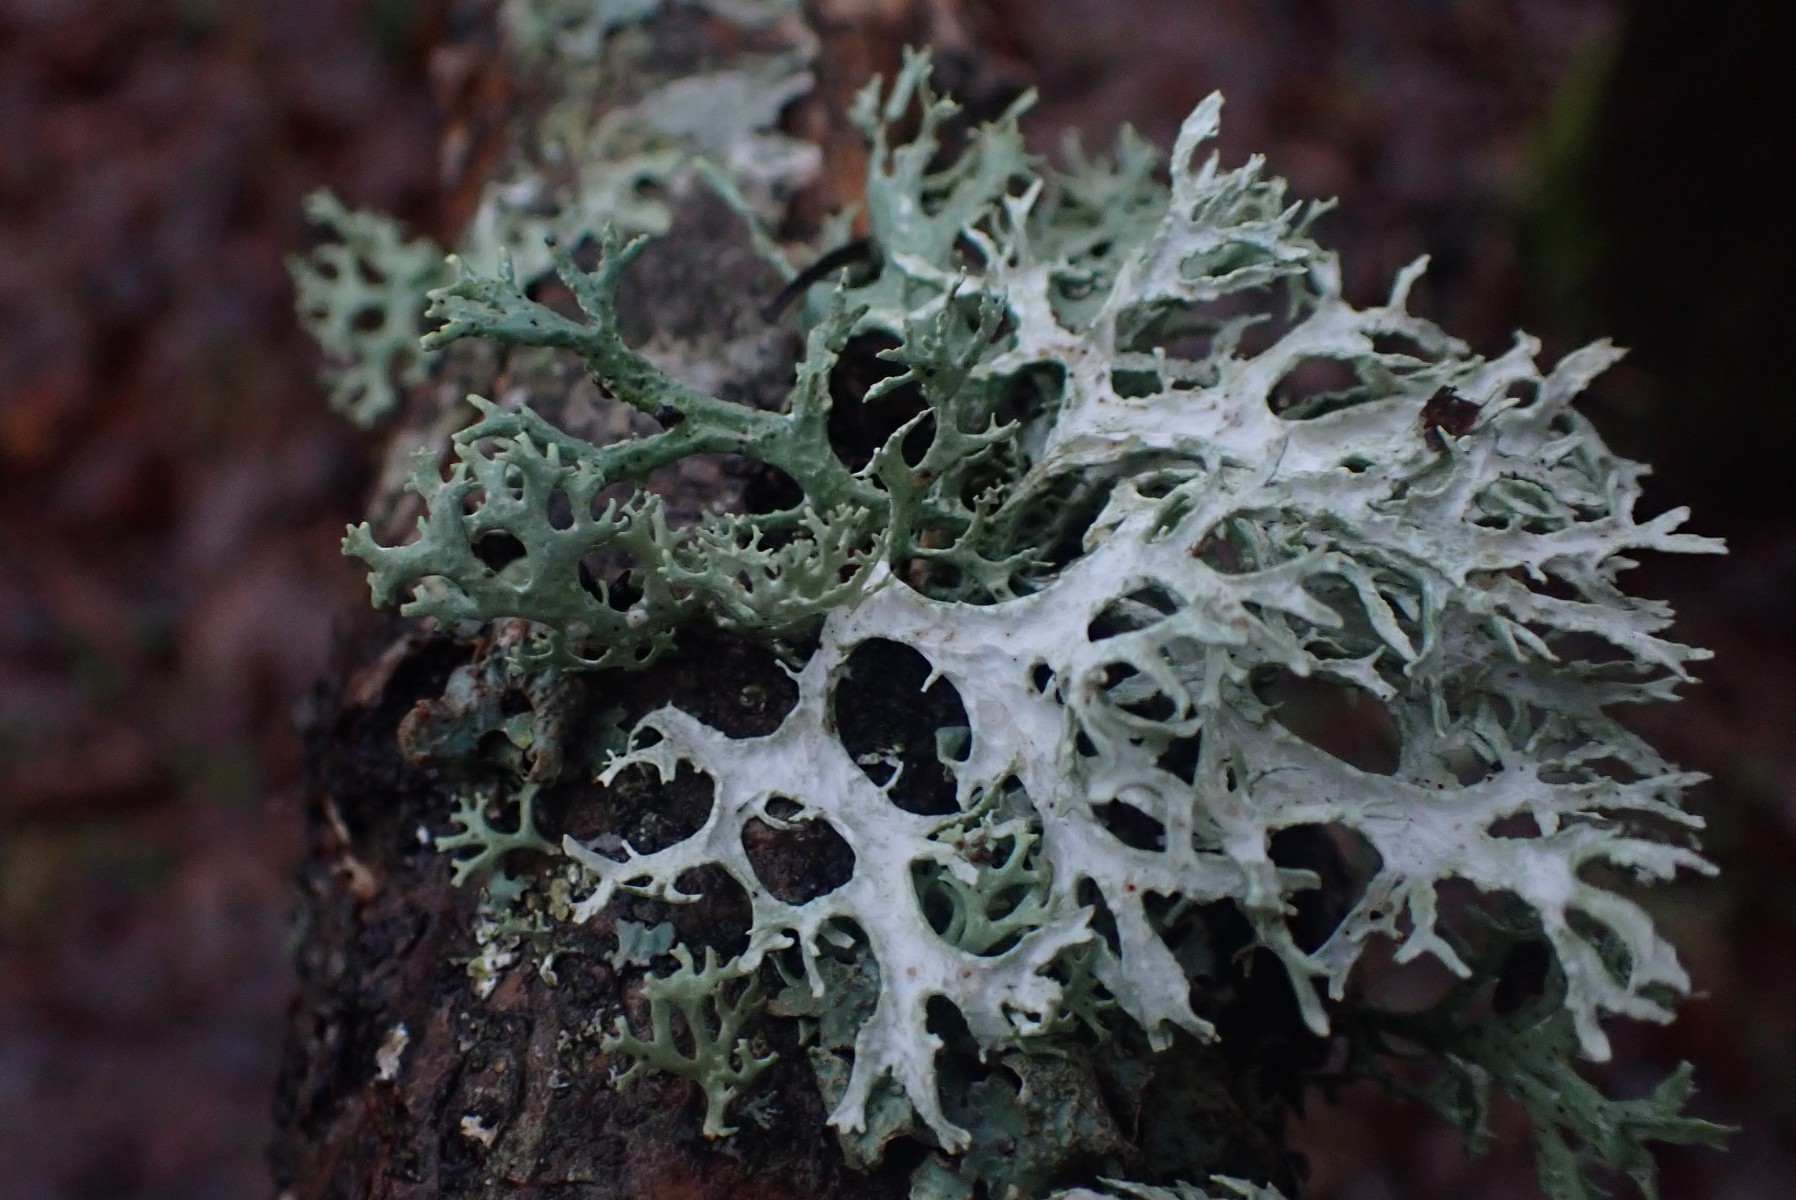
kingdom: Fungi
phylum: Ascomycota
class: Lecanoromycetes
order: Lecanorales
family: Parmeliaceae
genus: Evernia
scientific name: Evernia prunastri
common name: almindelig slåenlav
